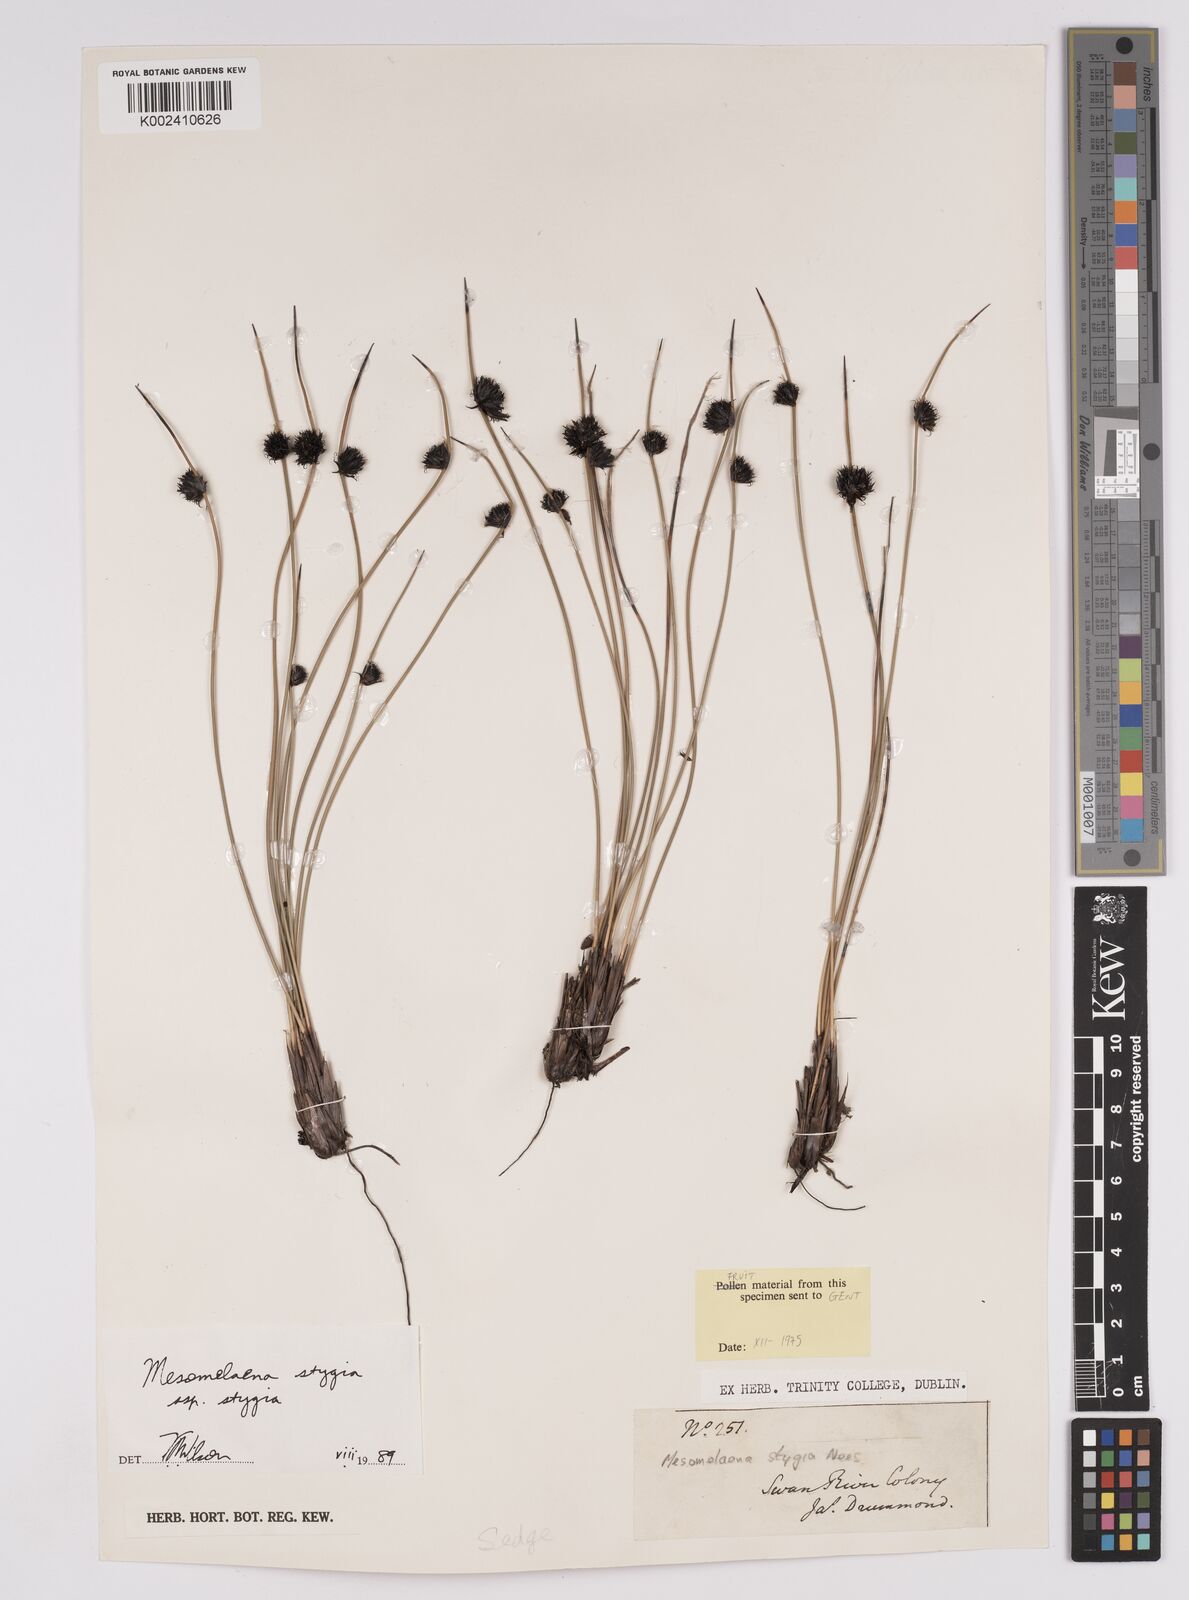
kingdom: Plantae
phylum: Tracheophyta
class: Liliopsida
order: Poales
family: Cyperaceae
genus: Mesomelaena
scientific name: Mesomelaena stygia
